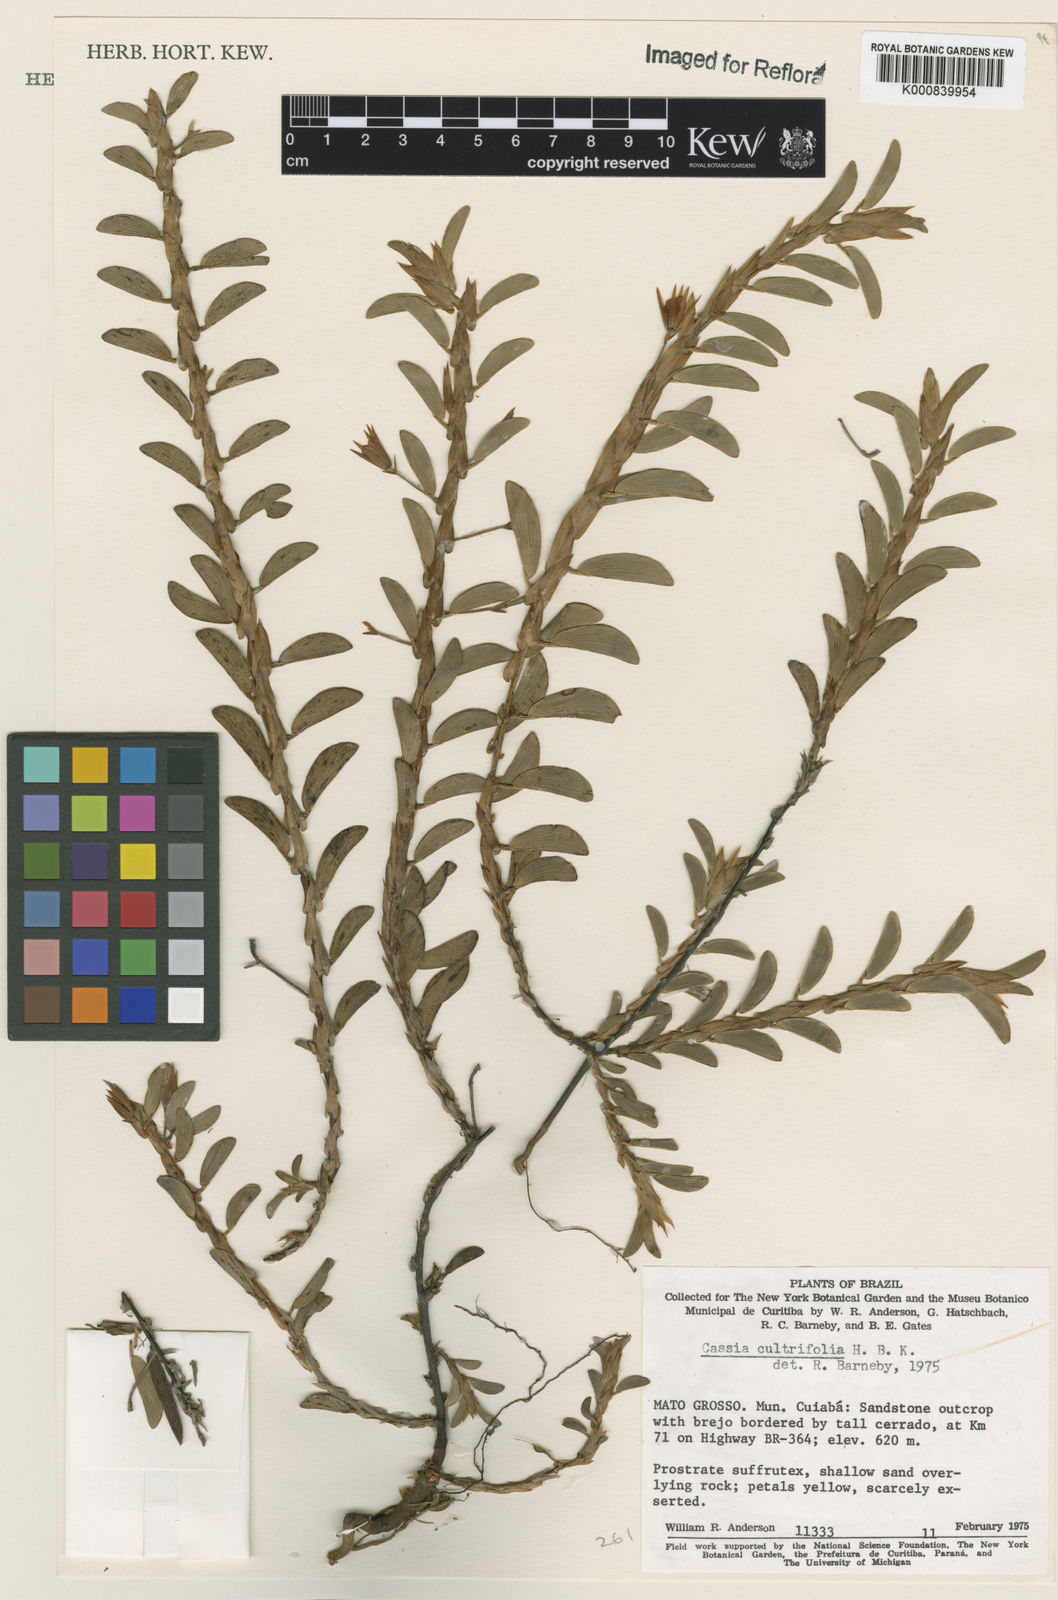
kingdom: Plantae
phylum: Tracheophyta
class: Magnoliopsida
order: Fabales
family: Fabaceae
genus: Chamaecrista
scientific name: Chamaecrista diphylla
